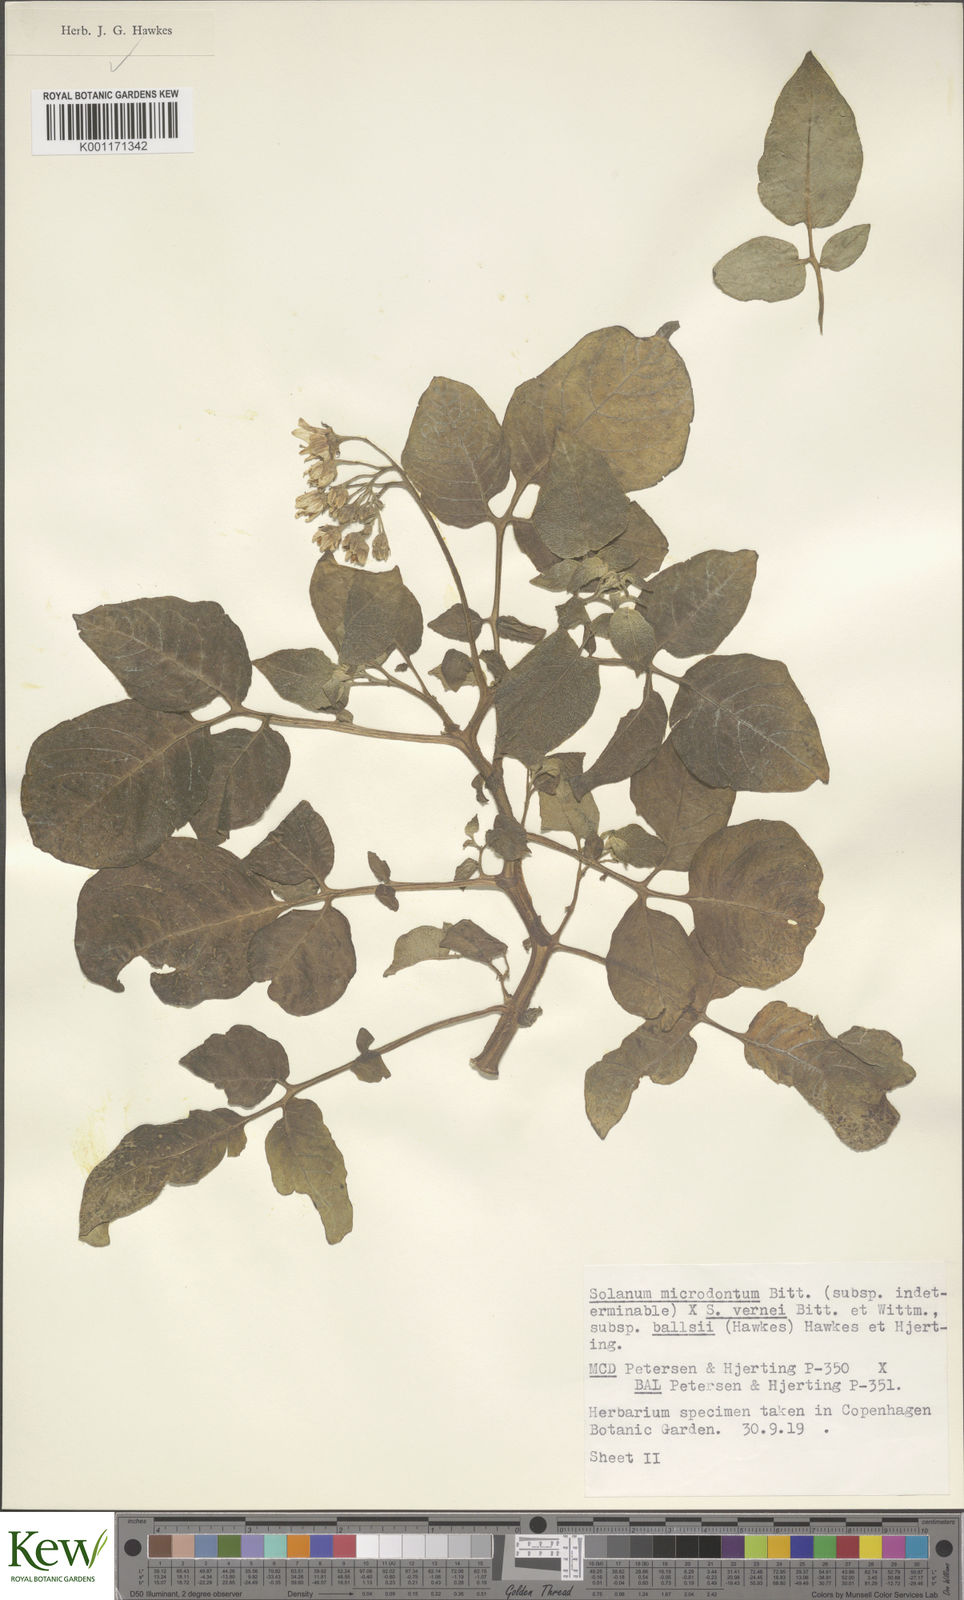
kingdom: Plantae
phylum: Tracheophyta
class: Magnoliopsida
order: Solanales
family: Solanaceae
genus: Solanum
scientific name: Solanum vernei
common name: Purple potato
